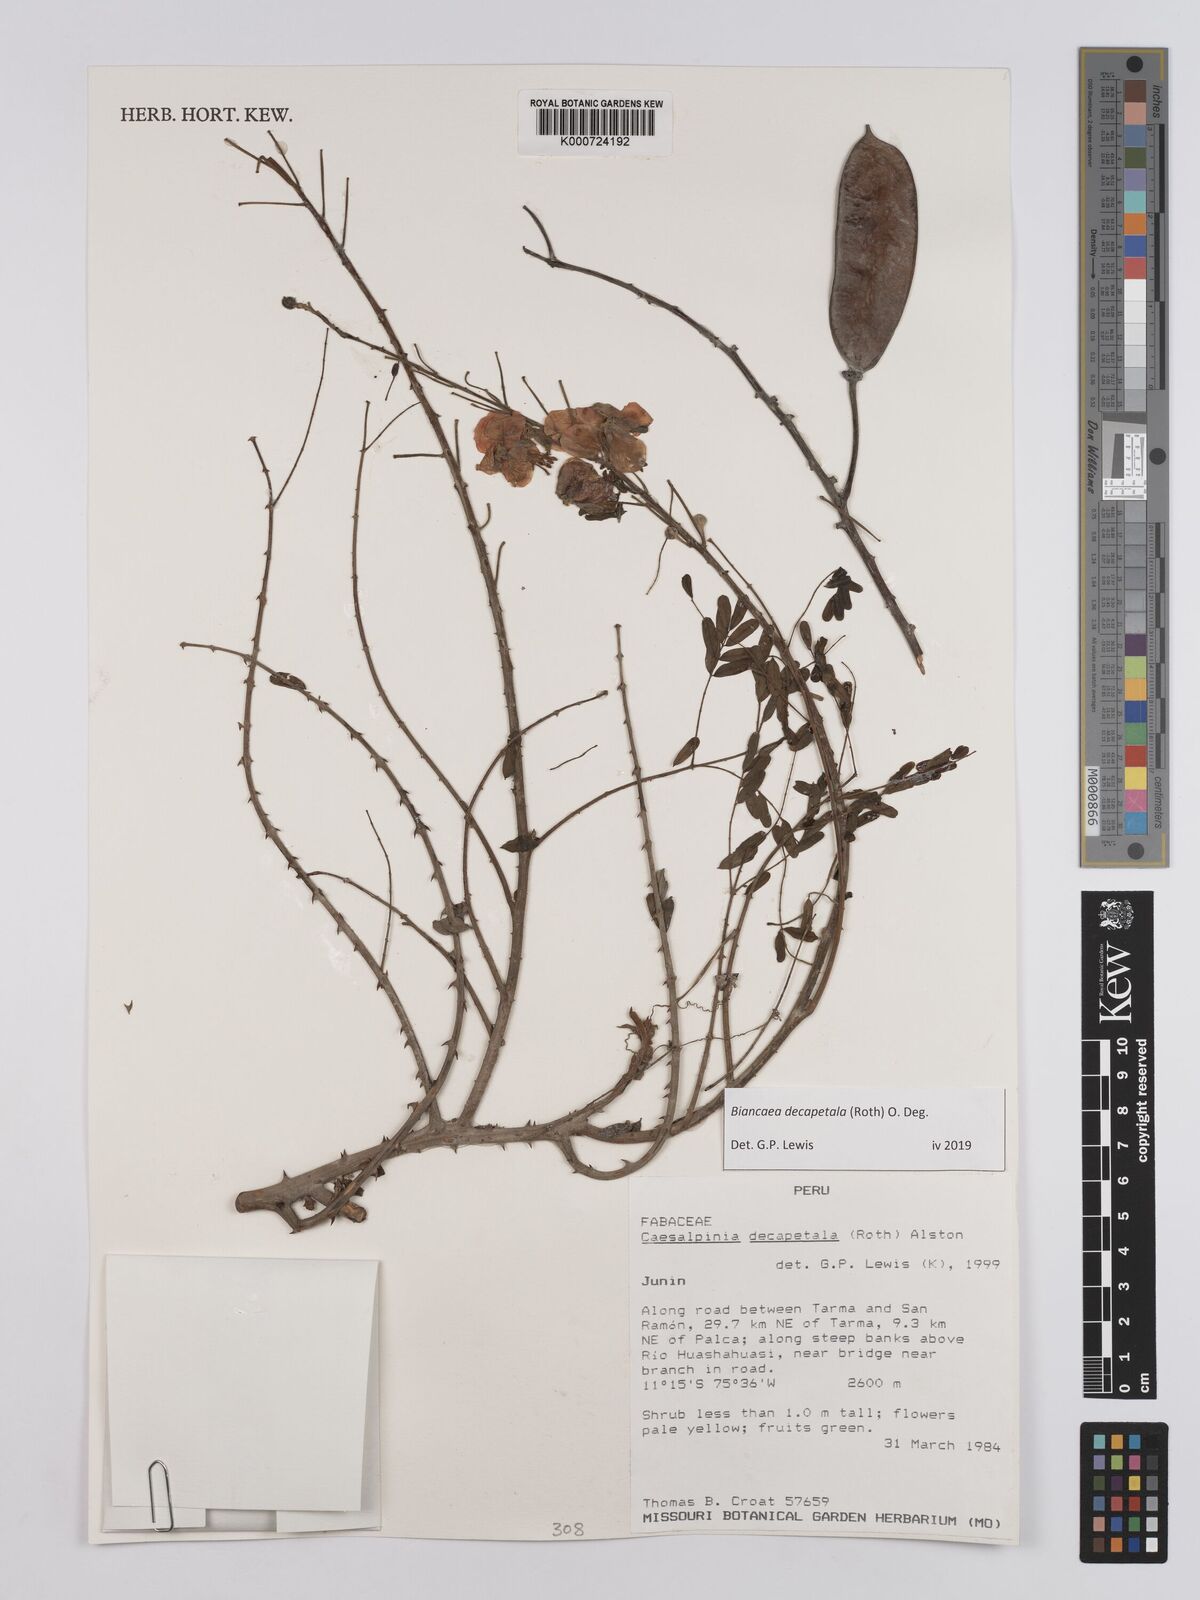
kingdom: Plantae
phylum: Tracheophyta
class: Magnoliopsida
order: Fabales
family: Fabaceae
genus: Biancaea
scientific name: Biancaea decapetala
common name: Cat's claw
